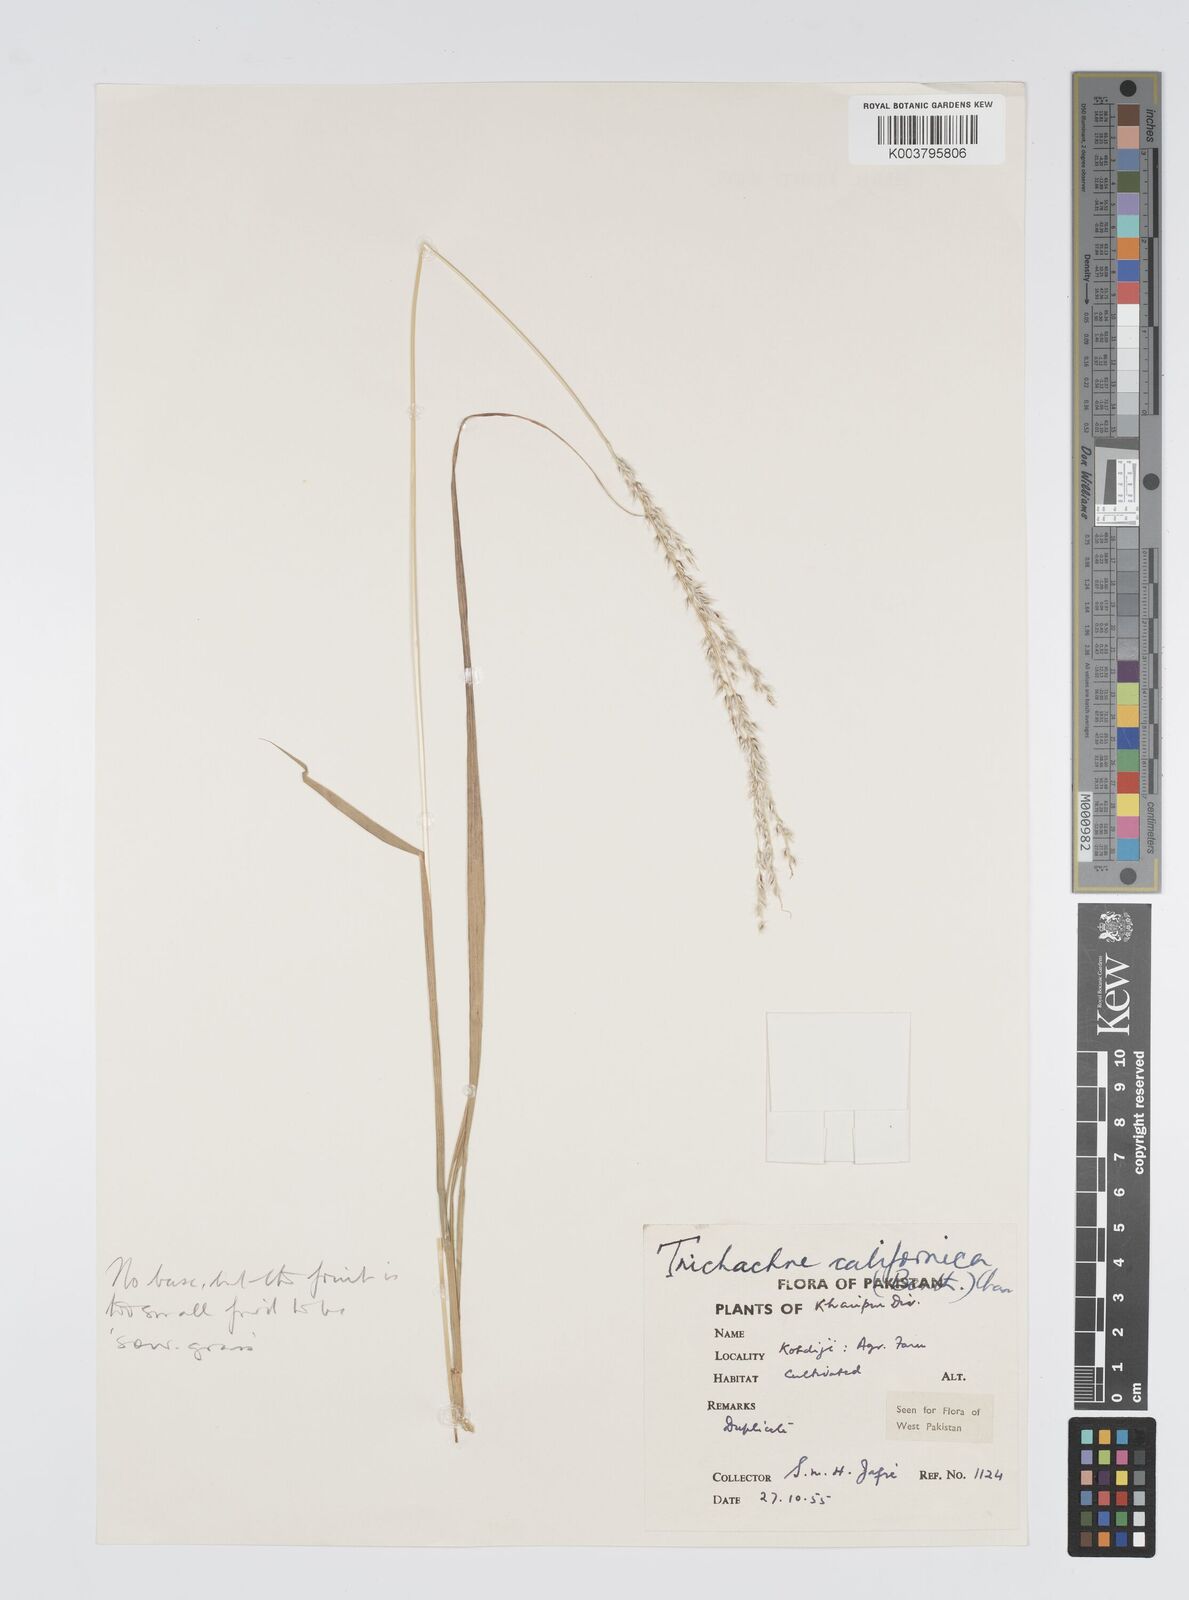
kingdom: Plantae
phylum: Tracheophyta
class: Liliopsida
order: Poales
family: Poaceae
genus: Digitaria
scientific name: Digitaria californica
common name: Arizona cottontop
